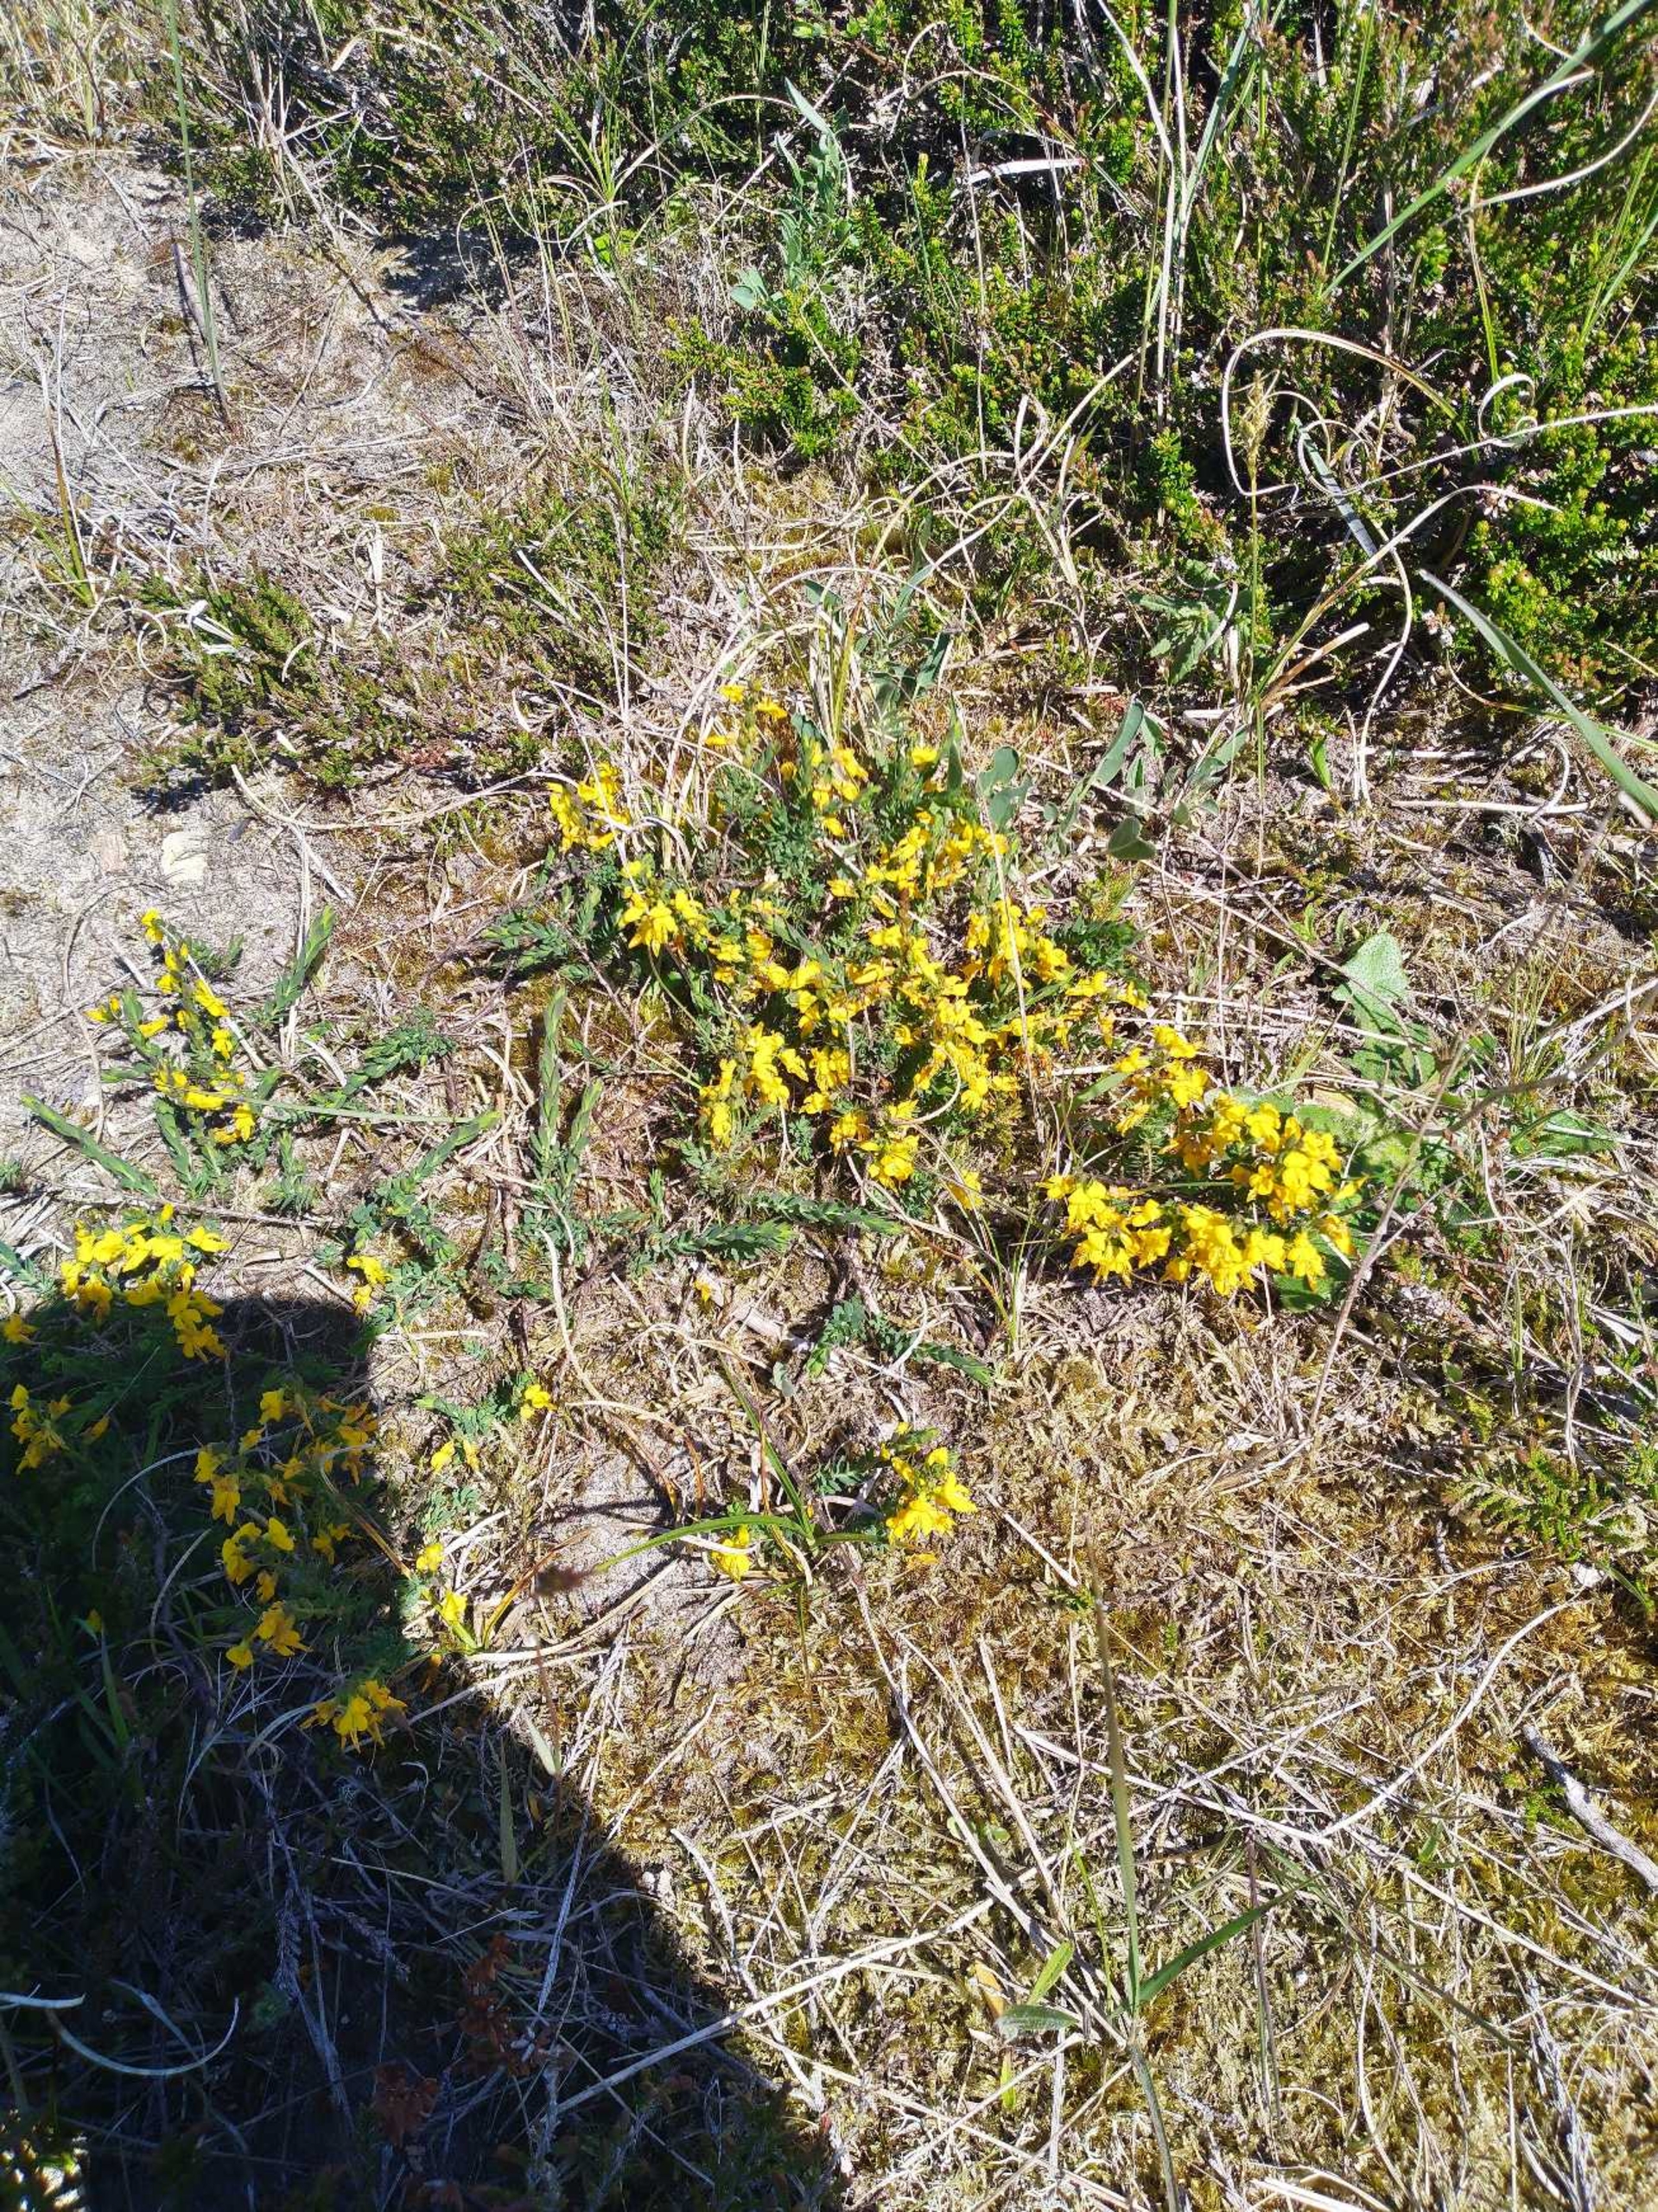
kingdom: Plantae
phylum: Tracheophyta
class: Magnoliopsida
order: Fabales
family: Fabaceae
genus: Genista
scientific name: Genista anglica
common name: Engelsk visse
